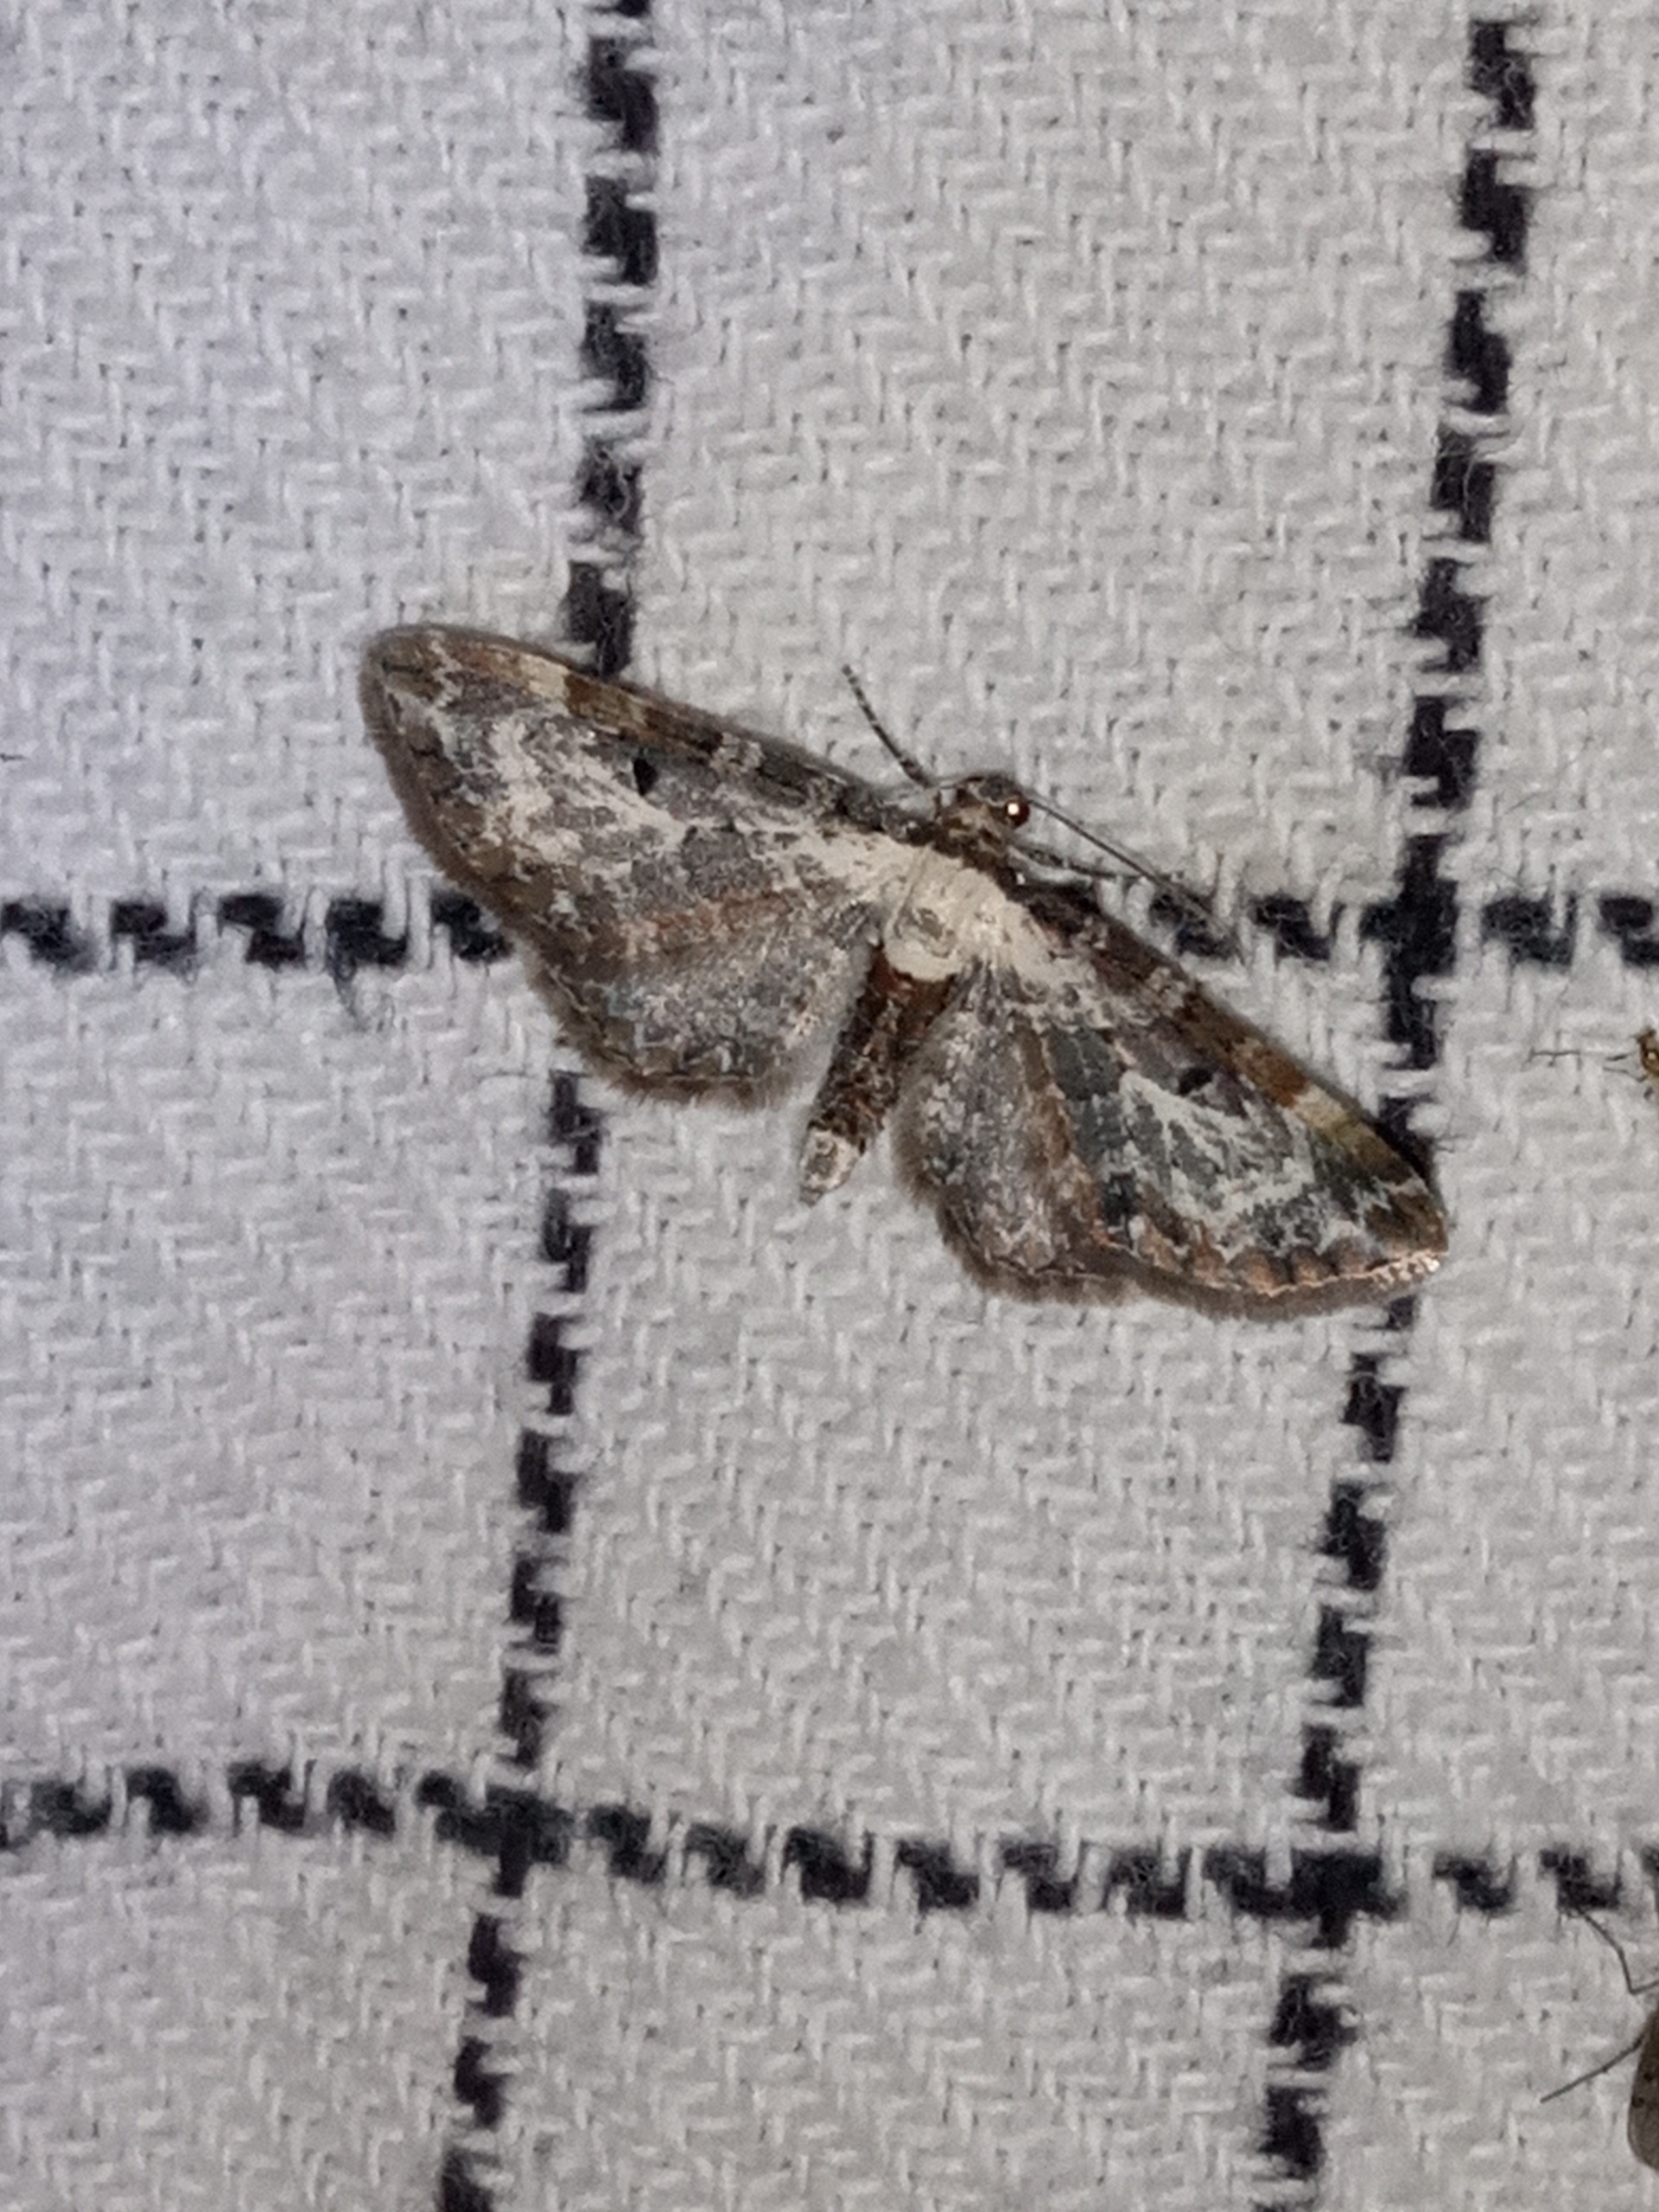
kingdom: Animalia
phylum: Arthropoda
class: Insecta
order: Lepidoptera
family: Geometridae
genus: Eupithecia
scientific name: Eupithecia succenturiata
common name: Bynke-dværgmåler
